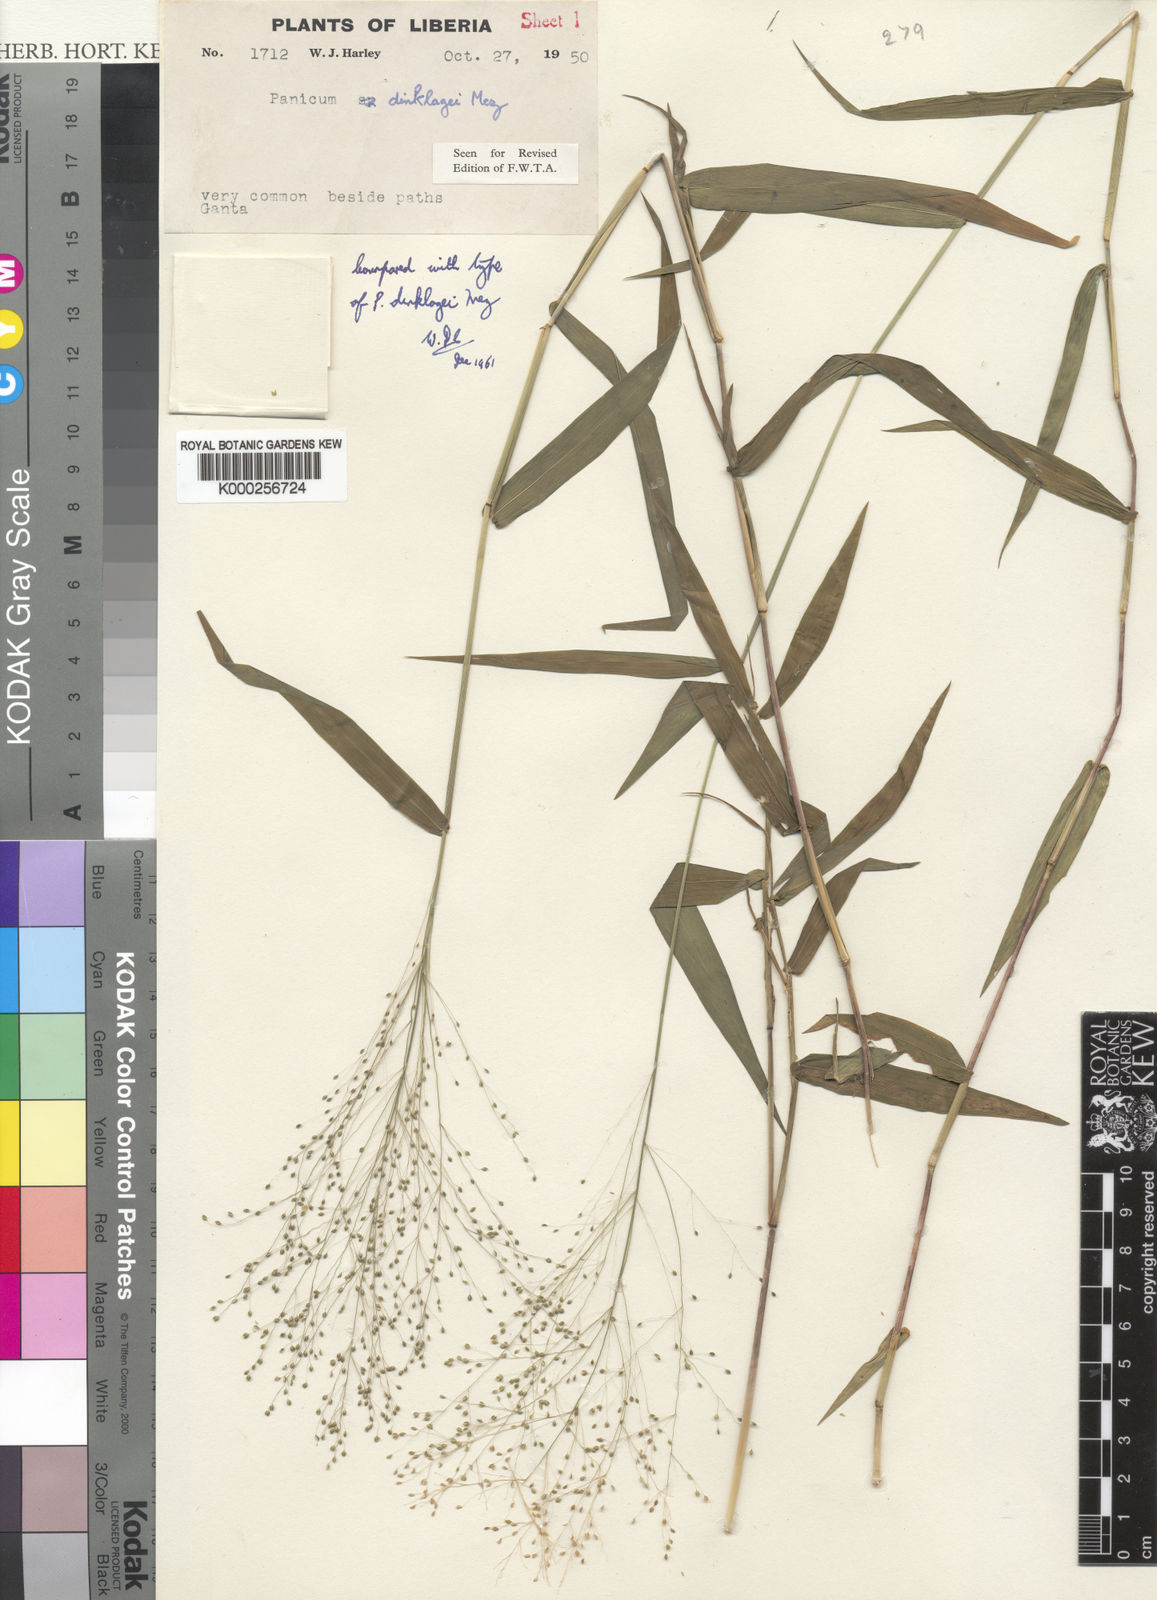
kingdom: Plantae
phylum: Tracheophyta
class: Liliopsida
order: Poales
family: Poaceae
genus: Trichanthecium
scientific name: Trichanthecium dinklagei
